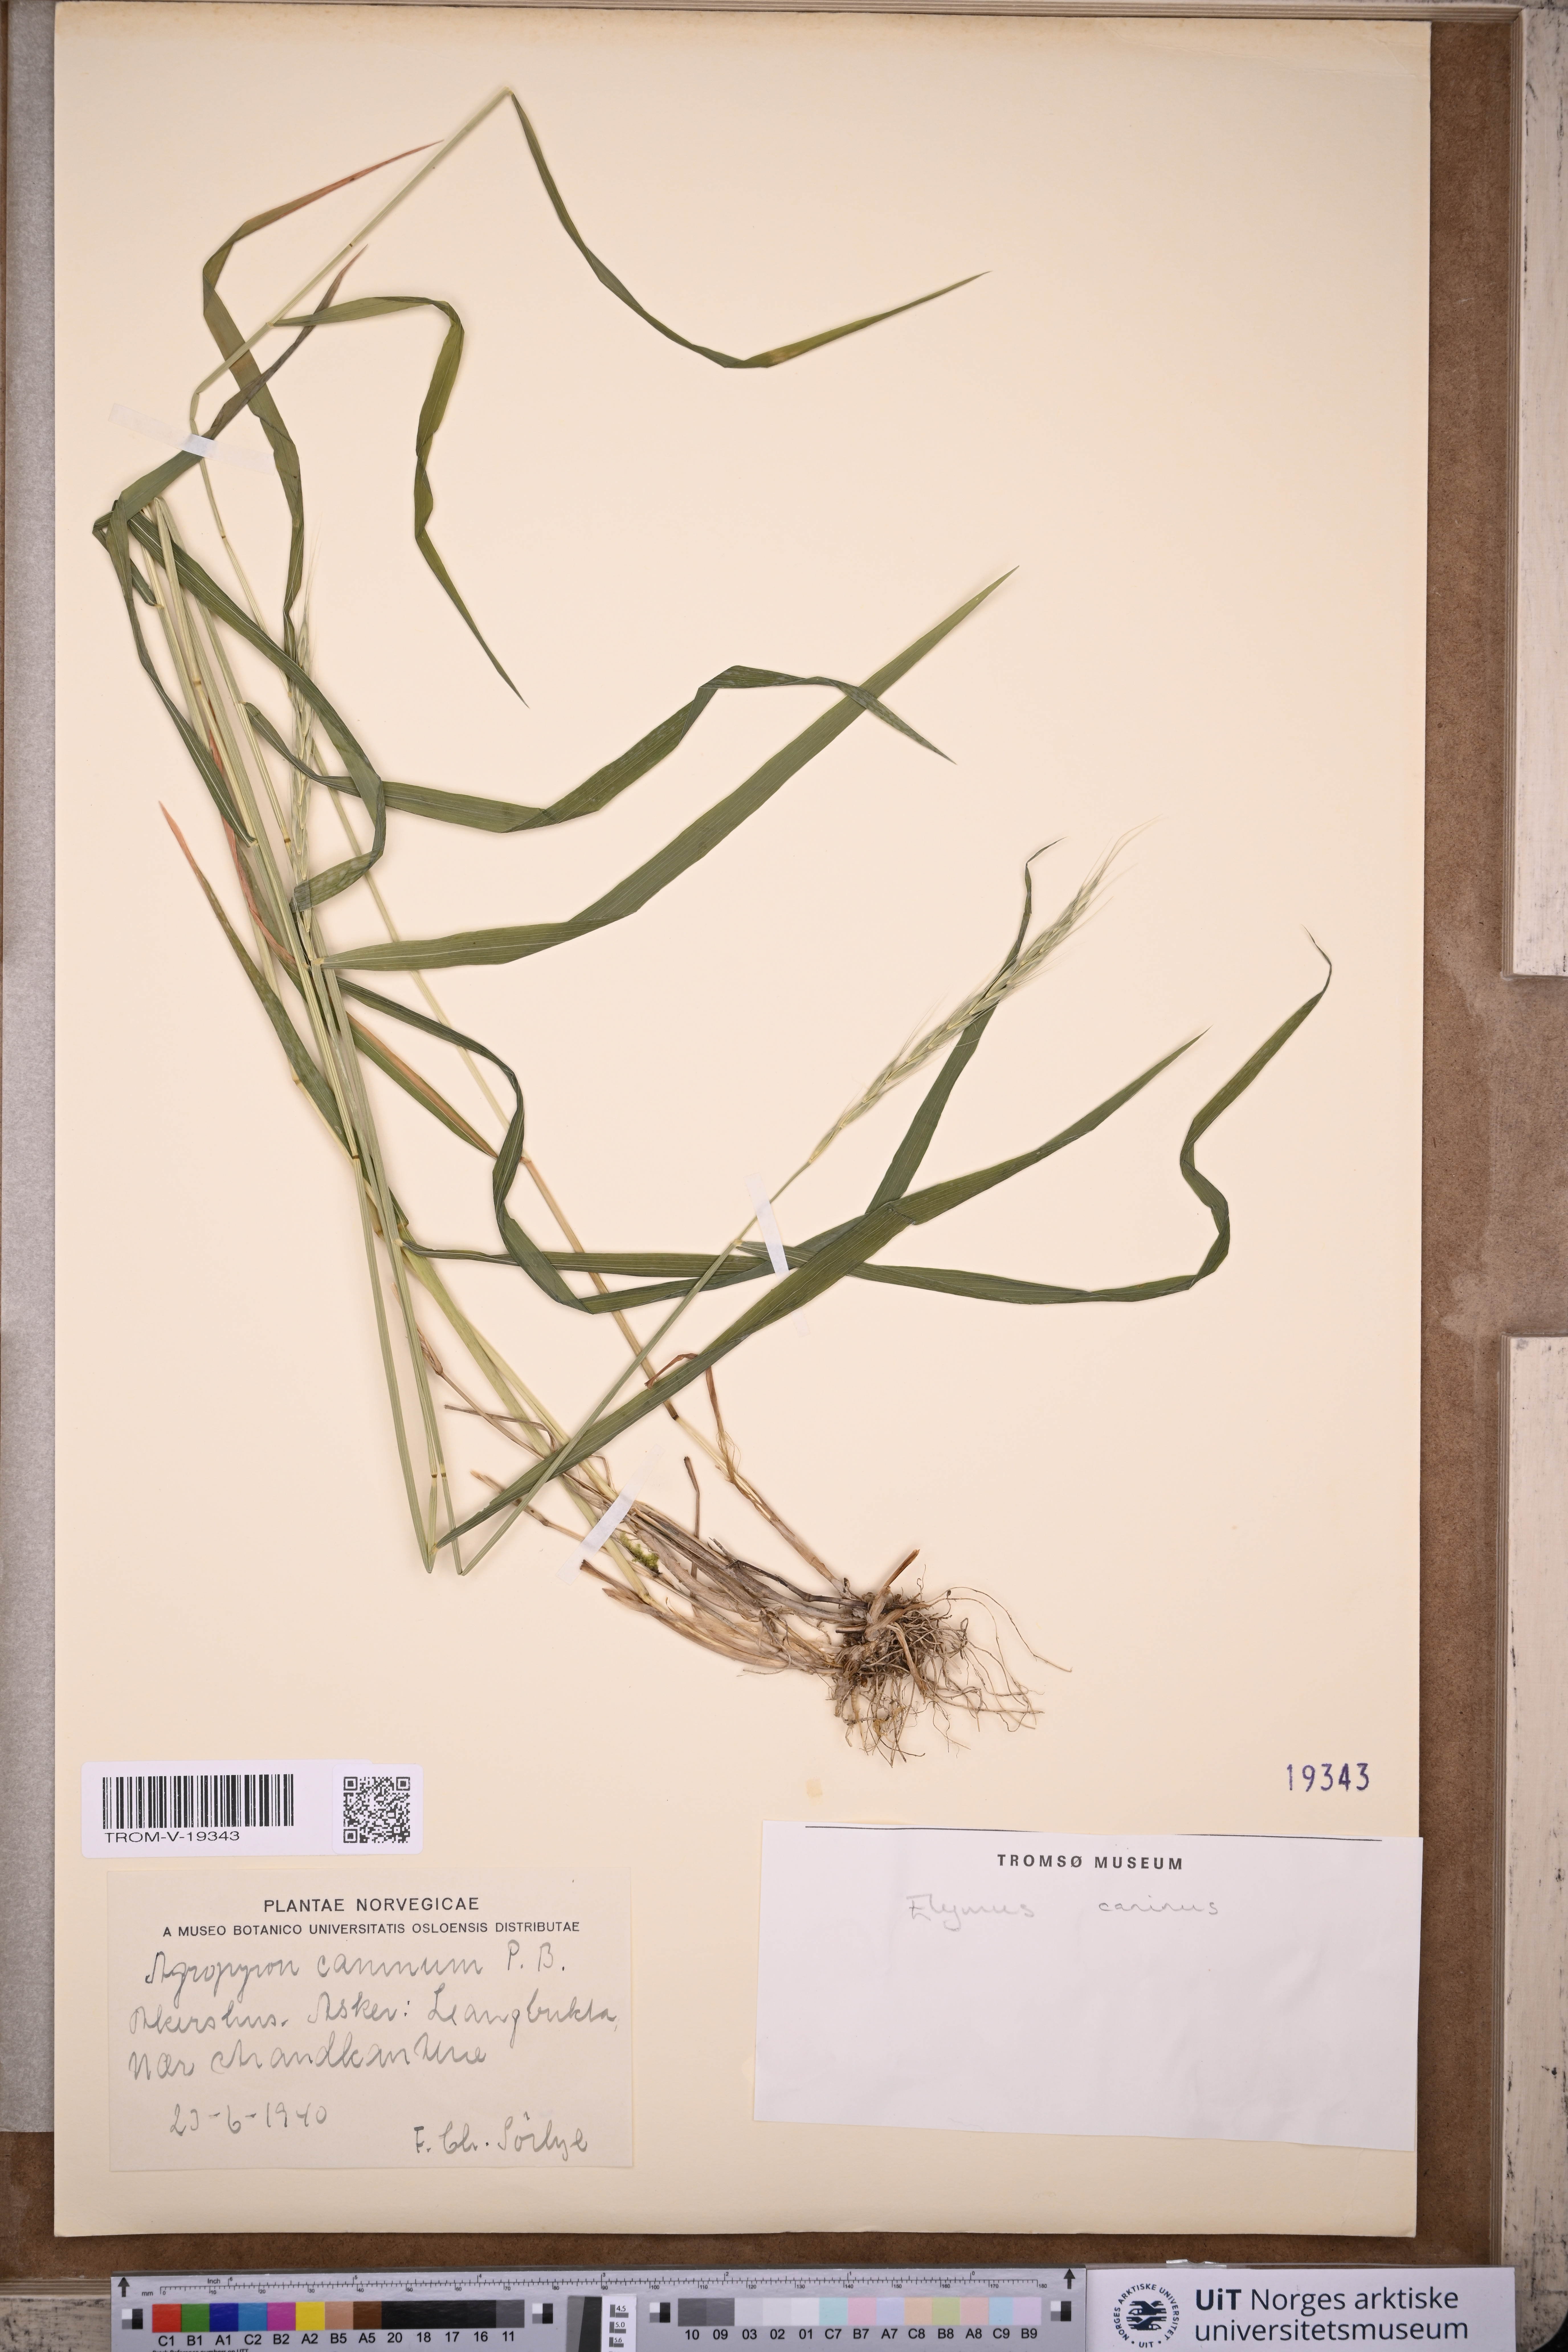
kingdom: Plantae
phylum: Tracheophyta
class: Liliopsida
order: Poales
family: Poaceae
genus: Elymus
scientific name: Elymus caninus
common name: Bearded couch
